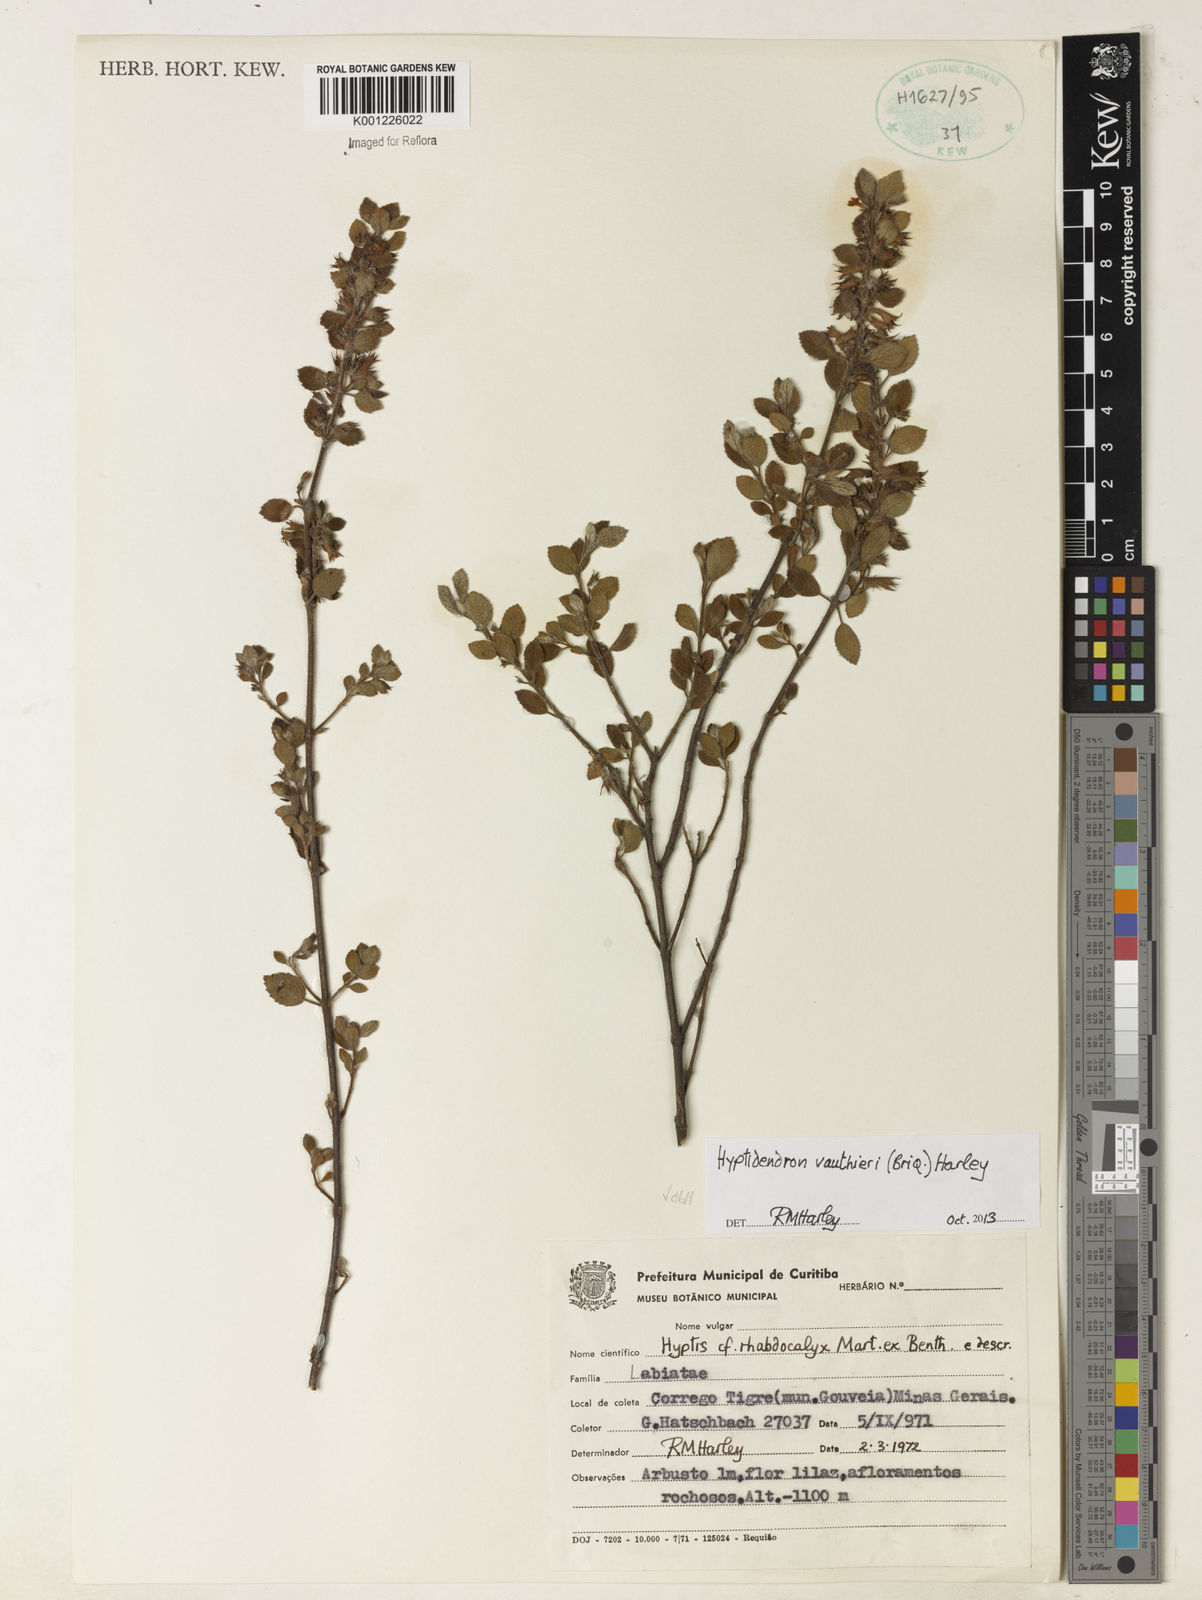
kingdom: Plantae
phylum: Tracheophyta
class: Magnoliopsida
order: Lamiales
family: Lamiaceae
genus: Hyptidendron
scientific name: Hyptidendron vauthieri
